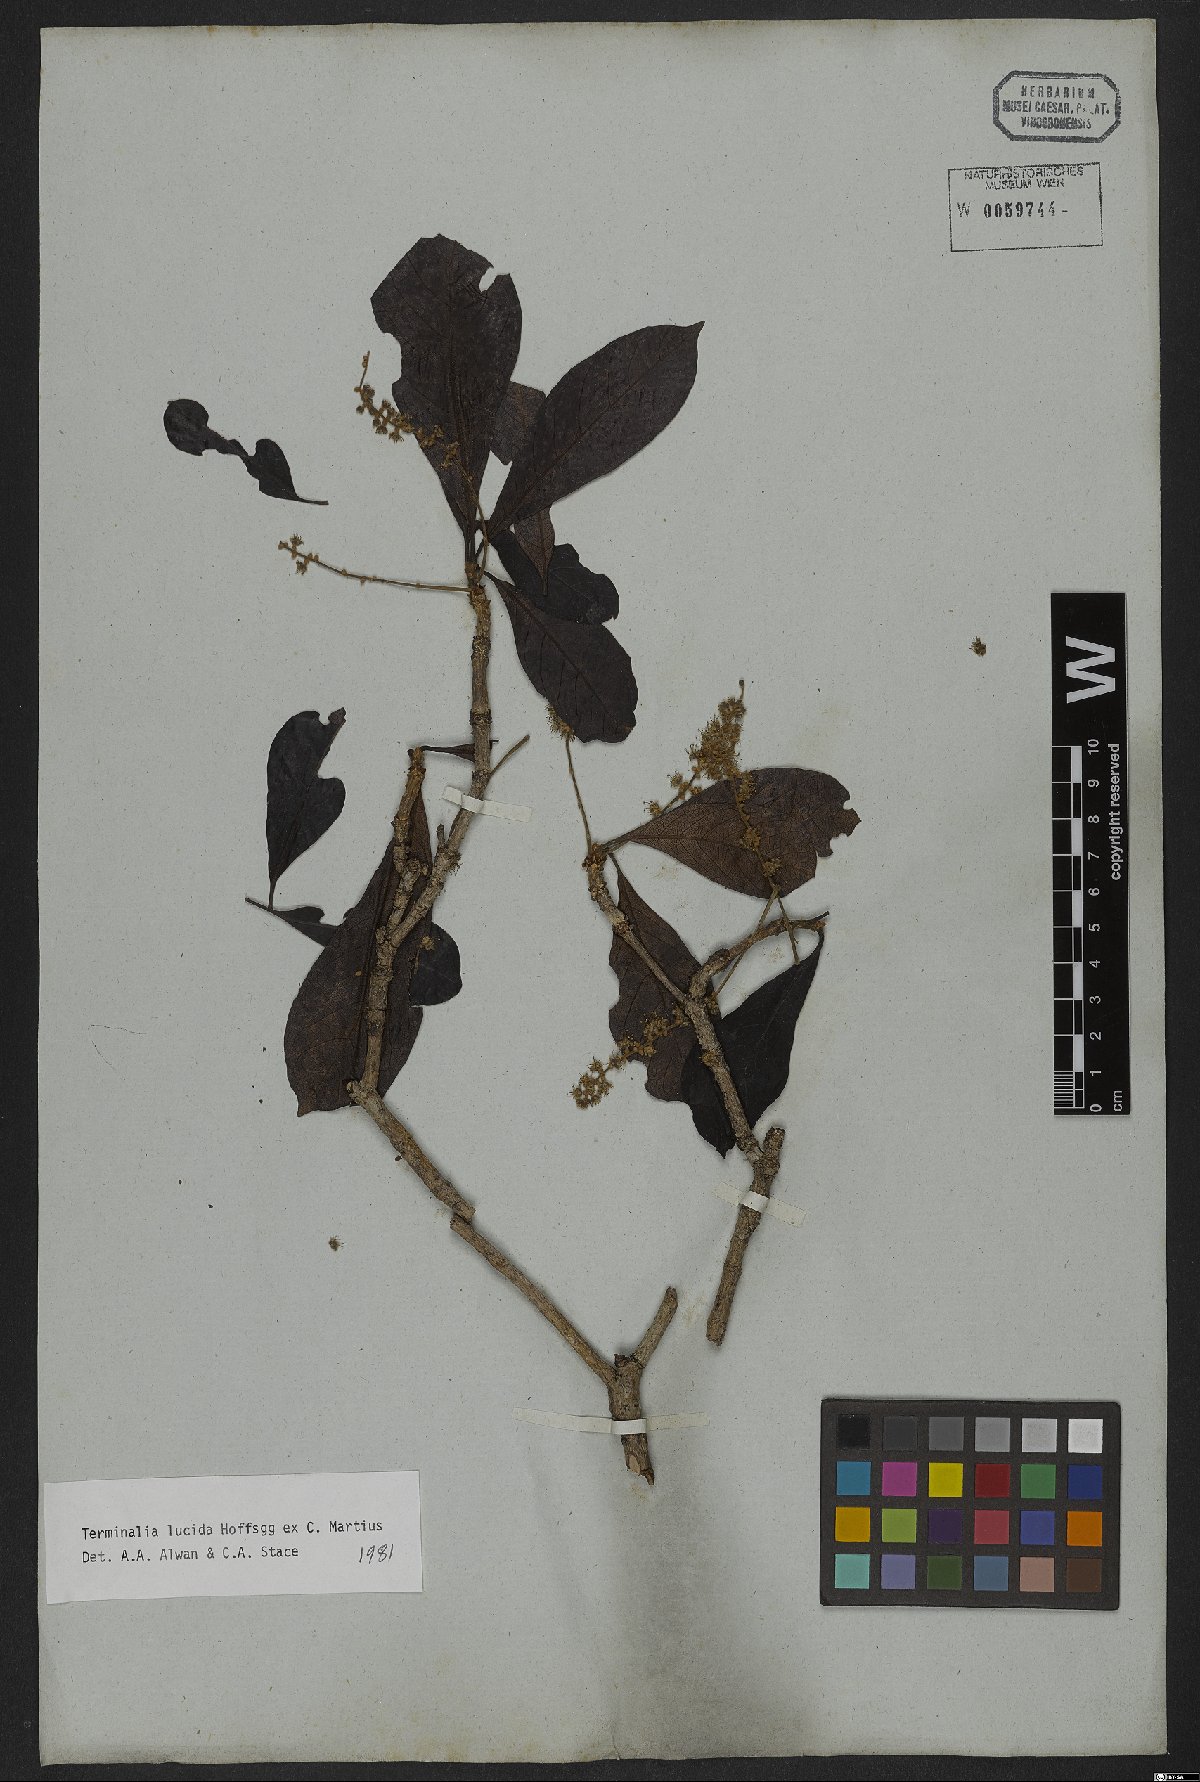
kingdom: Plantae
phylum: Tracheophyta
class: Magnoliopsida
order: Myrtales
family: Combretaceae
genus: Terminalia
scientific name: Terminalia lucida
